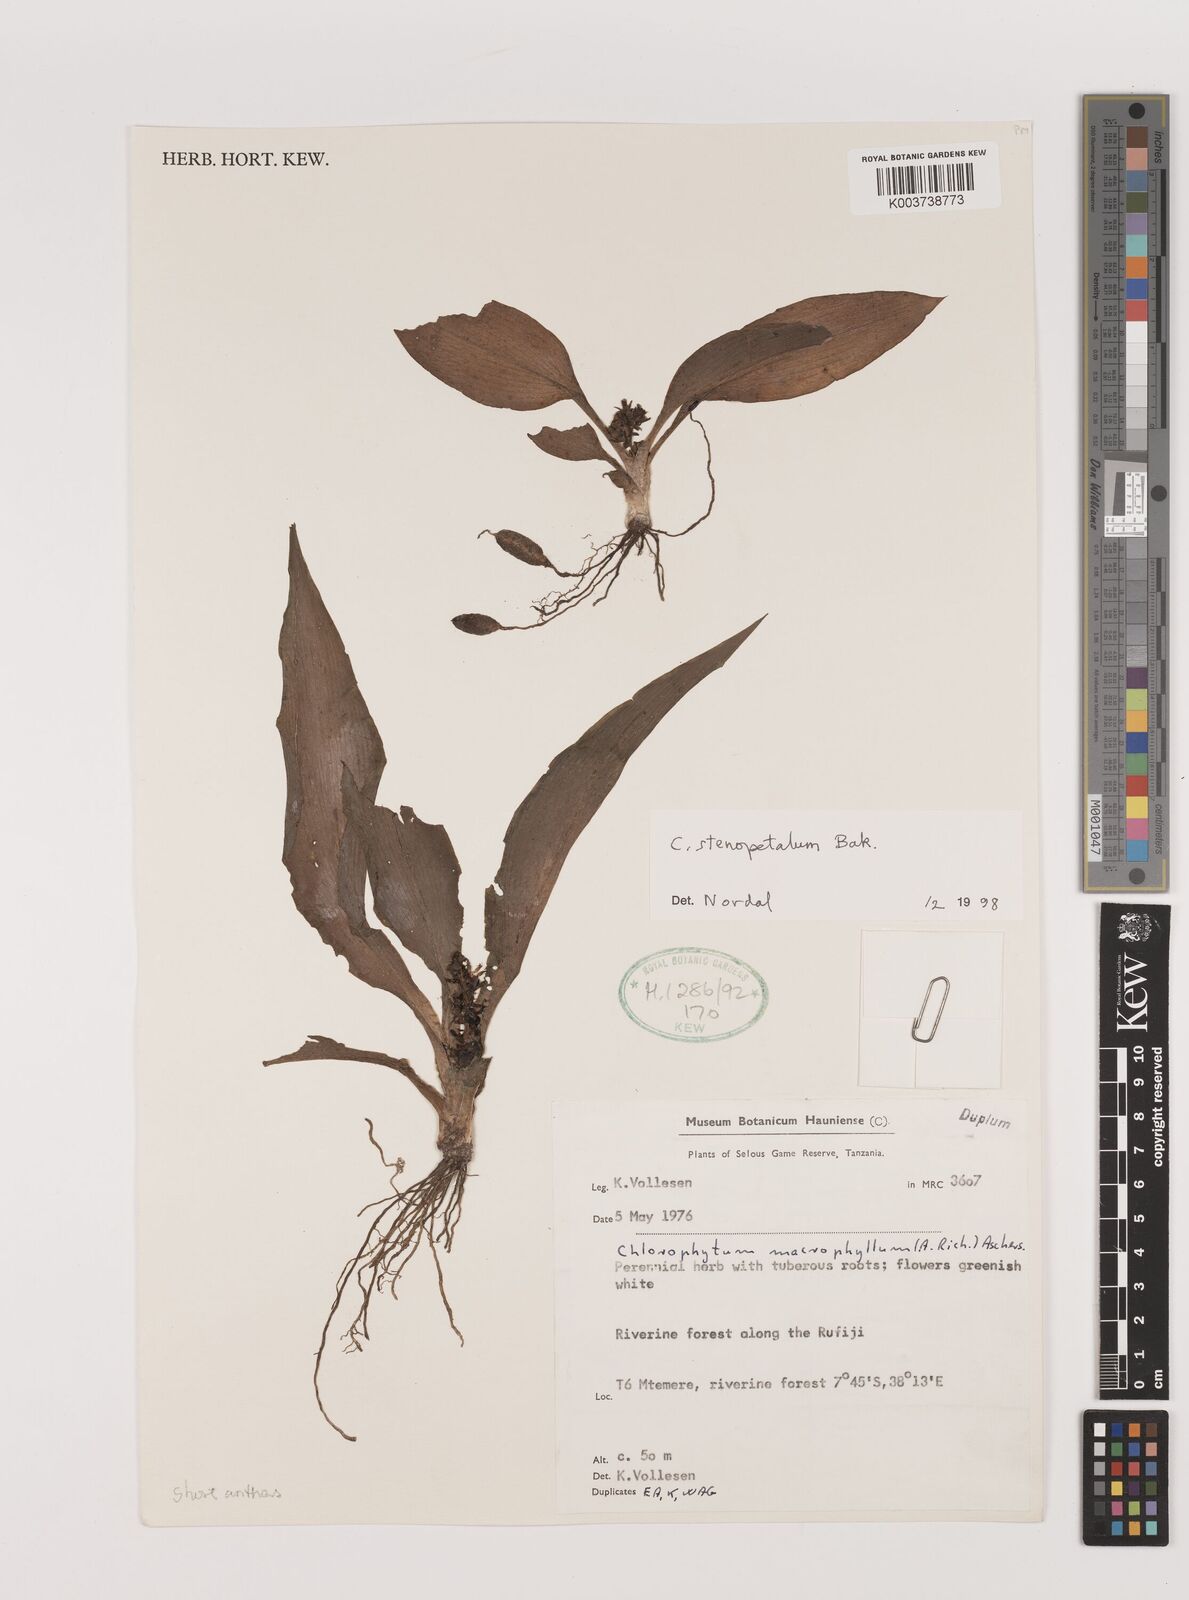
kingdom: Plantae
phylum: Tracheophyta
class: Liliopsida
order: Asparagales
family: Asparagaceae
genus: Chlorophytum
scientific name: Chlorophytum stenopetalum
